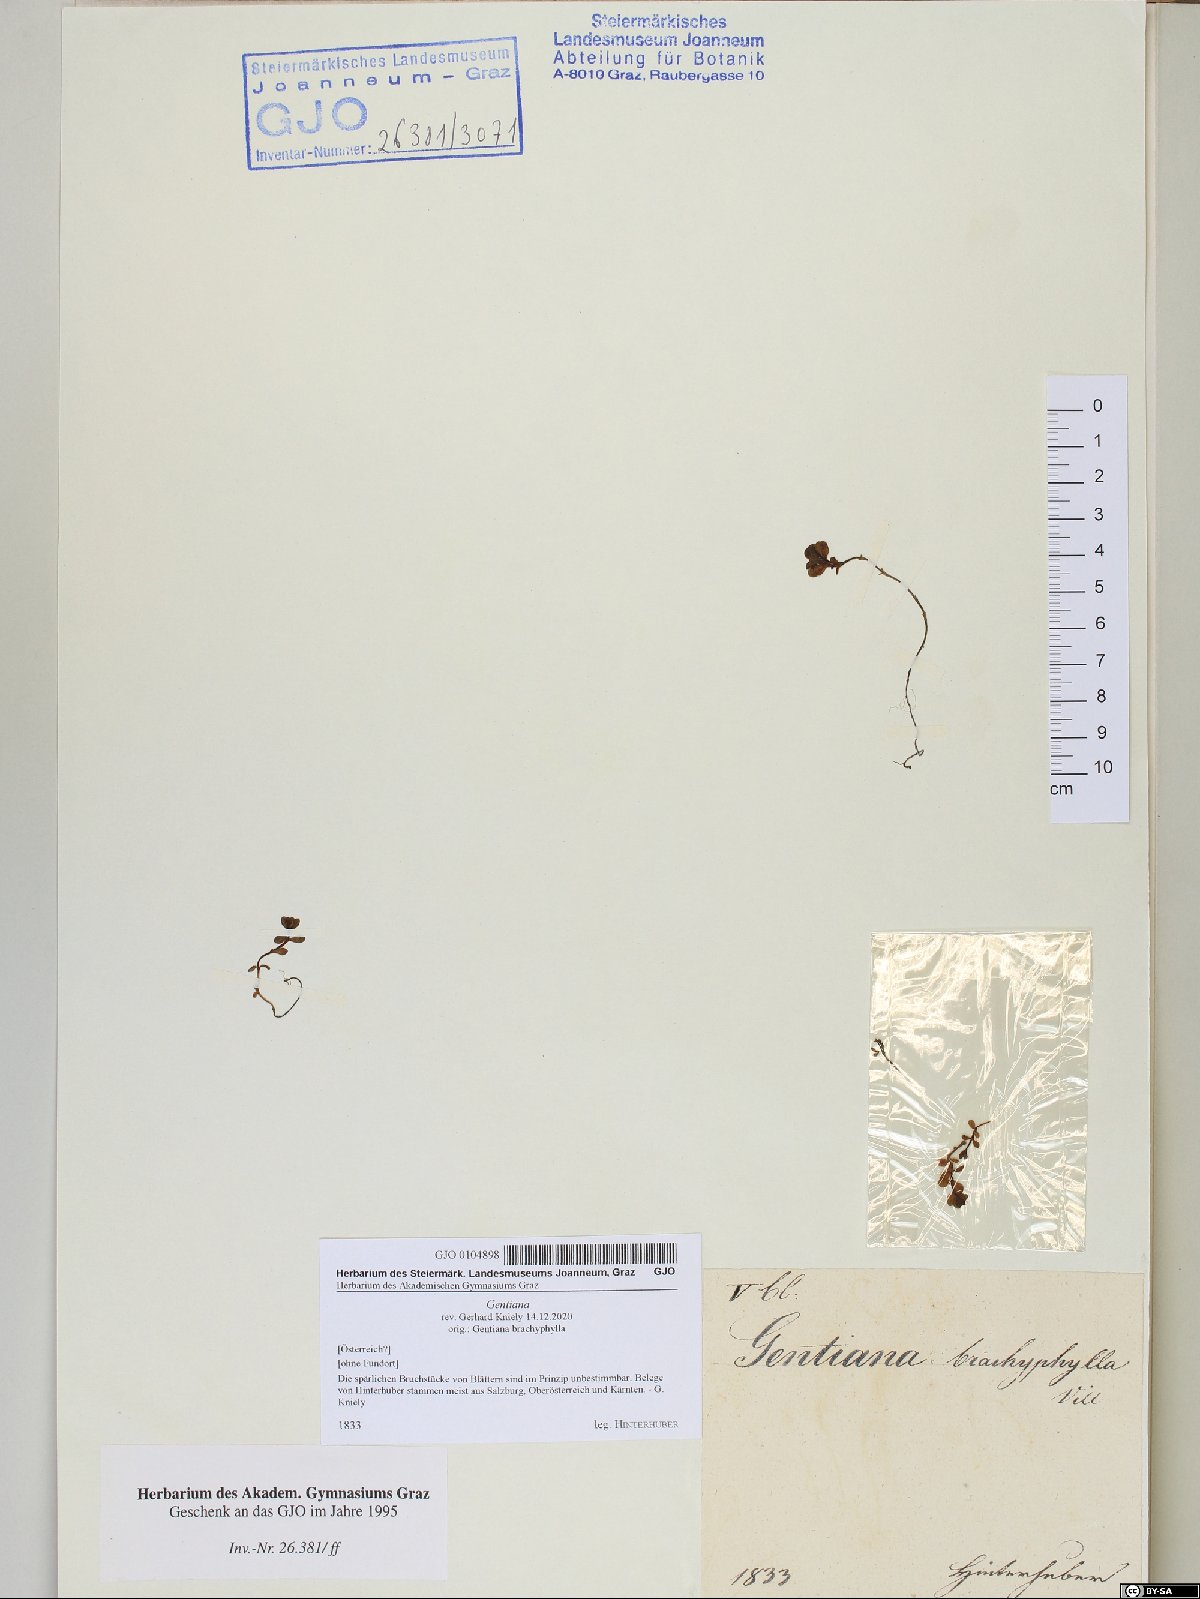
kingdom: Plantae
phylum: Tracheophyta
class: Magnoliopsida
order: Gentianales
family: Gentianaceae
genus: Gentiana
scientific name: Gentiana
